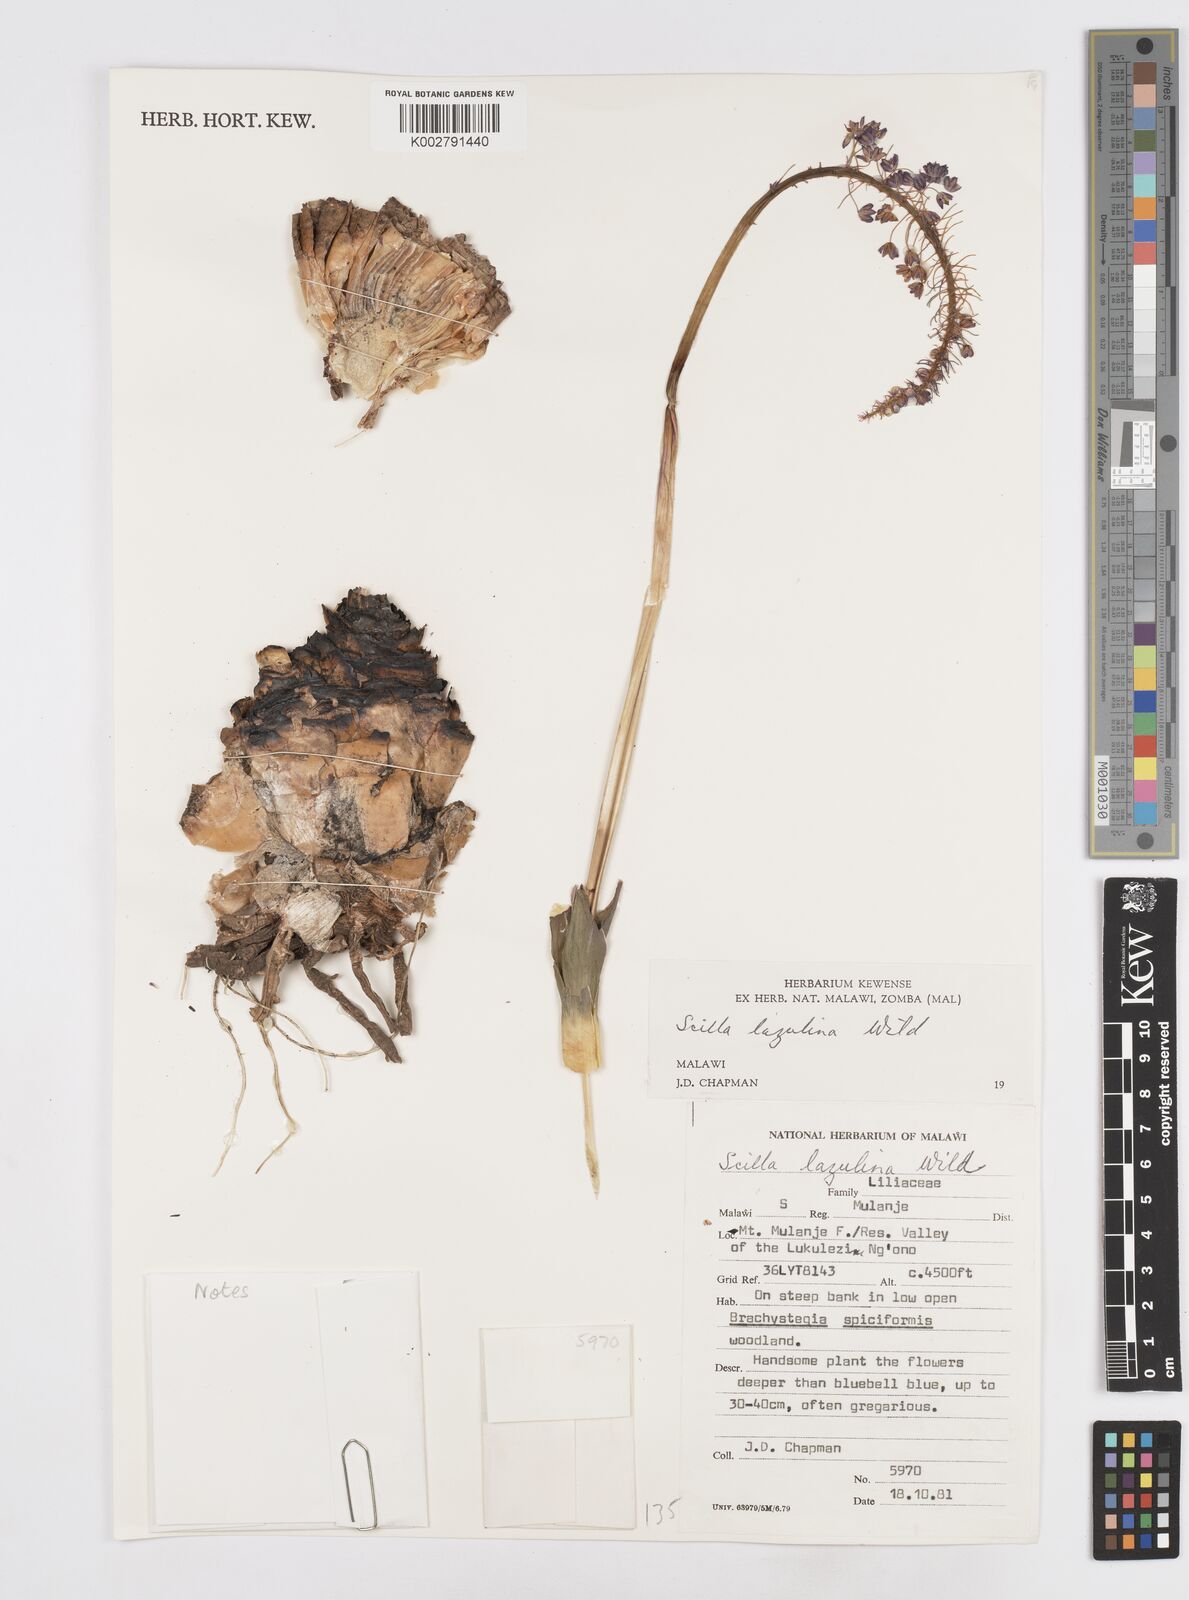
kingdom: Plantae
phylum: Tracheophyta
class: Liliopsida
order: Asparagales
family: Asparagaceae
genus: Merwilla
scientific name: Merwilla plumbea
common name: Blue-squill
